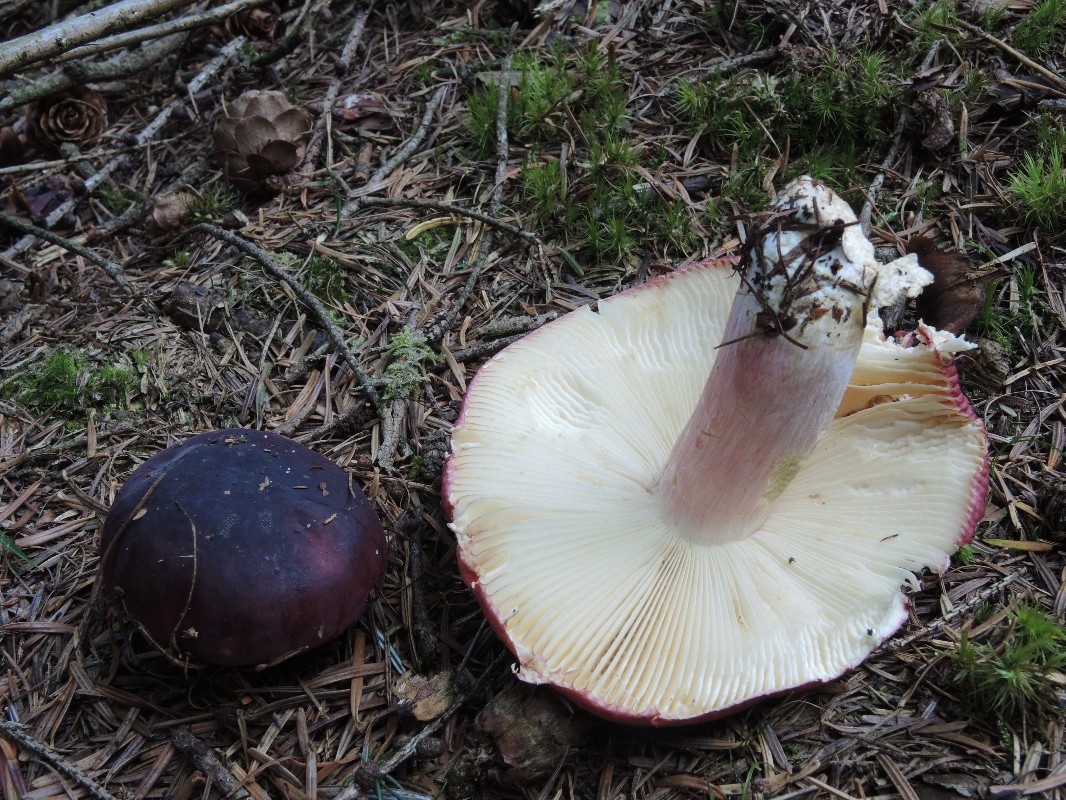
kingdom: Fungi
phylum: Basidiomycota
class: Agaricomycetes
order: Russulales
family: Russulaceae
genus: Russula
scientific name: Russula xerampelina
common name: hummer-skørhat
